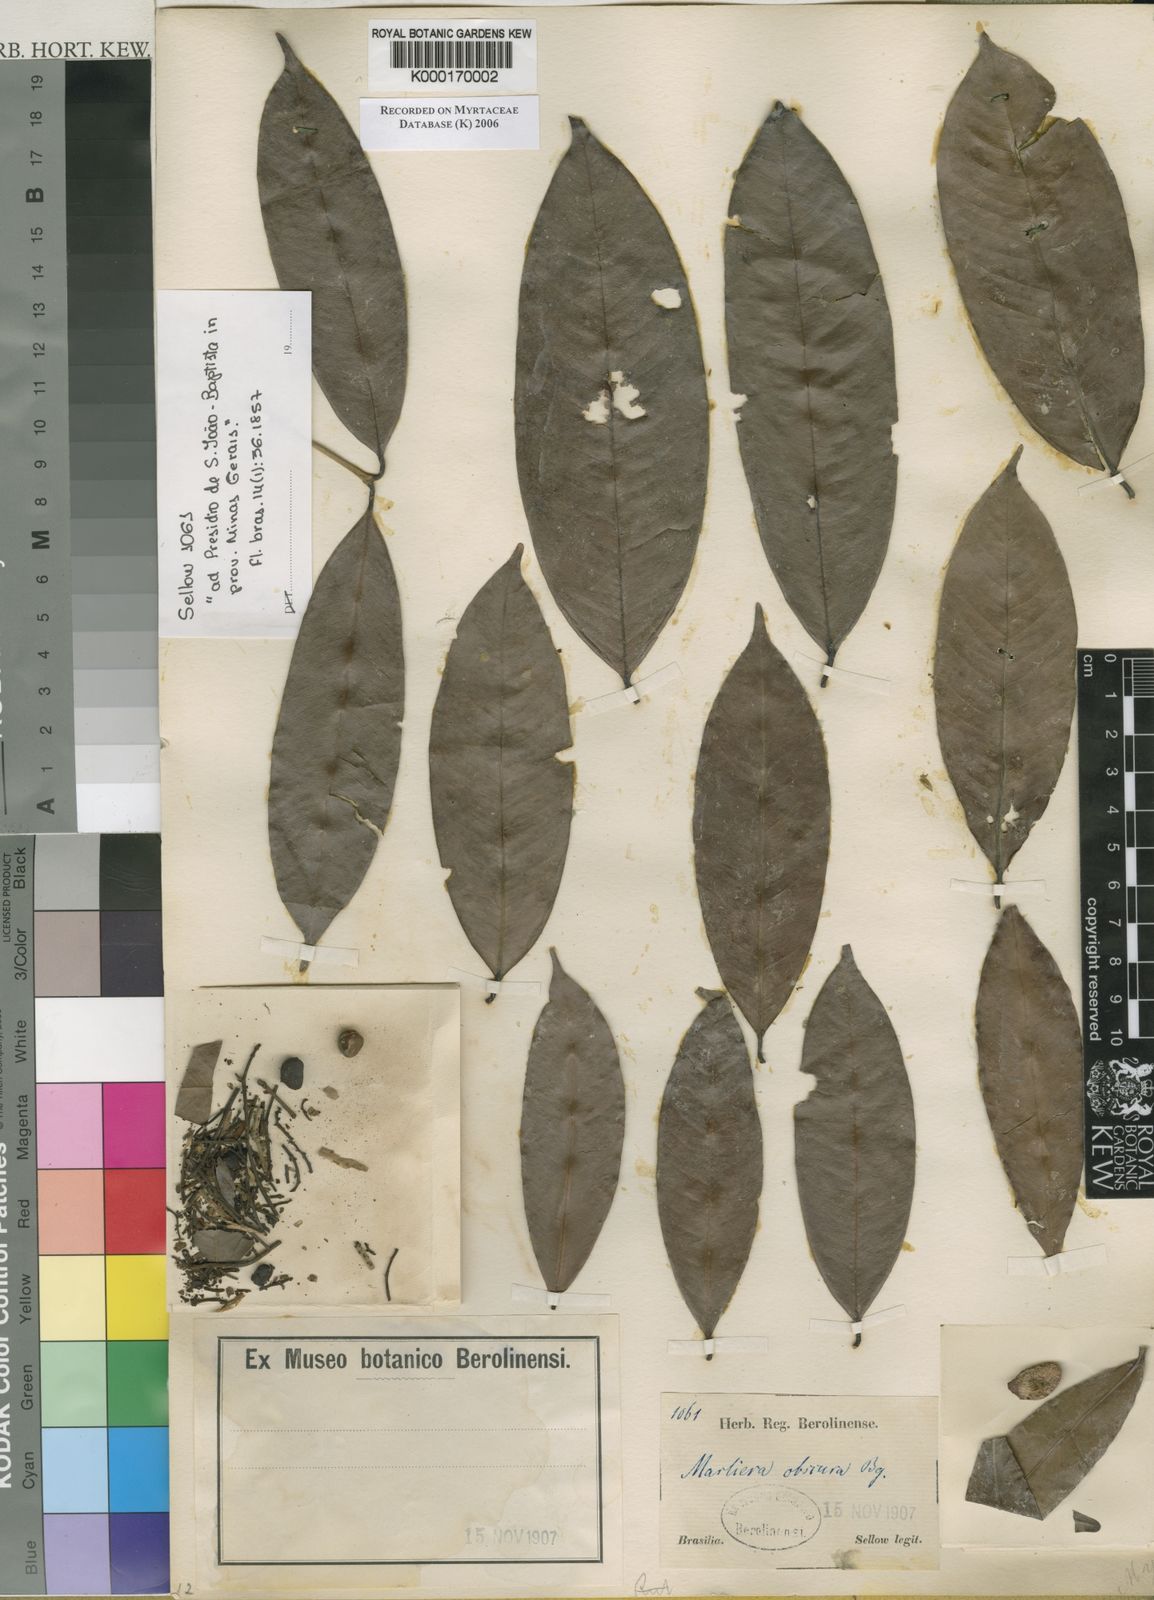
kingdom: Plantae
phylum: Tracheophyta
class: Magnoliopsida
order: Myrtales
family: Myrtaceae
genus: Myrcia
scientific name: Myrcia neoobscura
